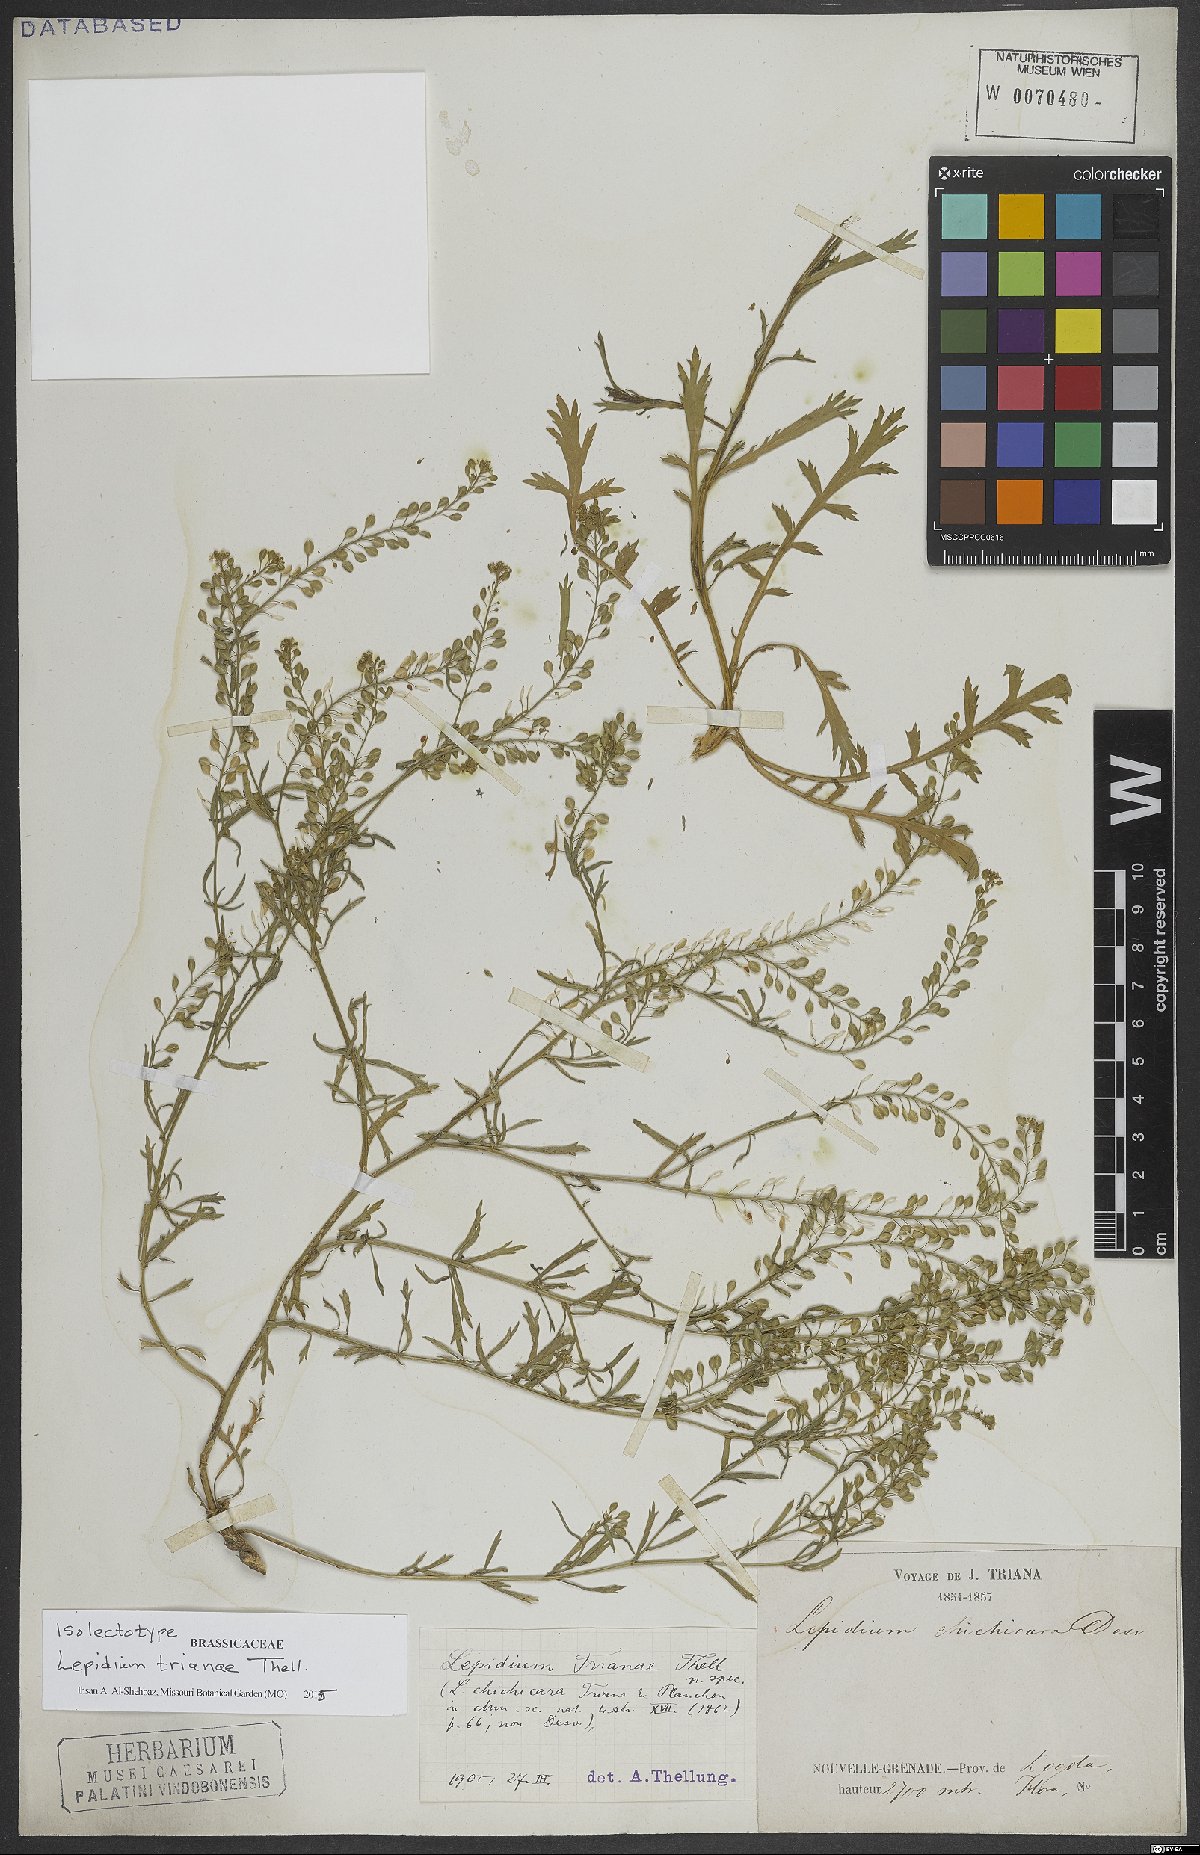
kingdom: Plantae
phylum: Tracheophyta
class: Magnoliopsida
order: Brassicales
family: Brassicaceae
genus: Lepidium
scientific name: Lepidium trianae
